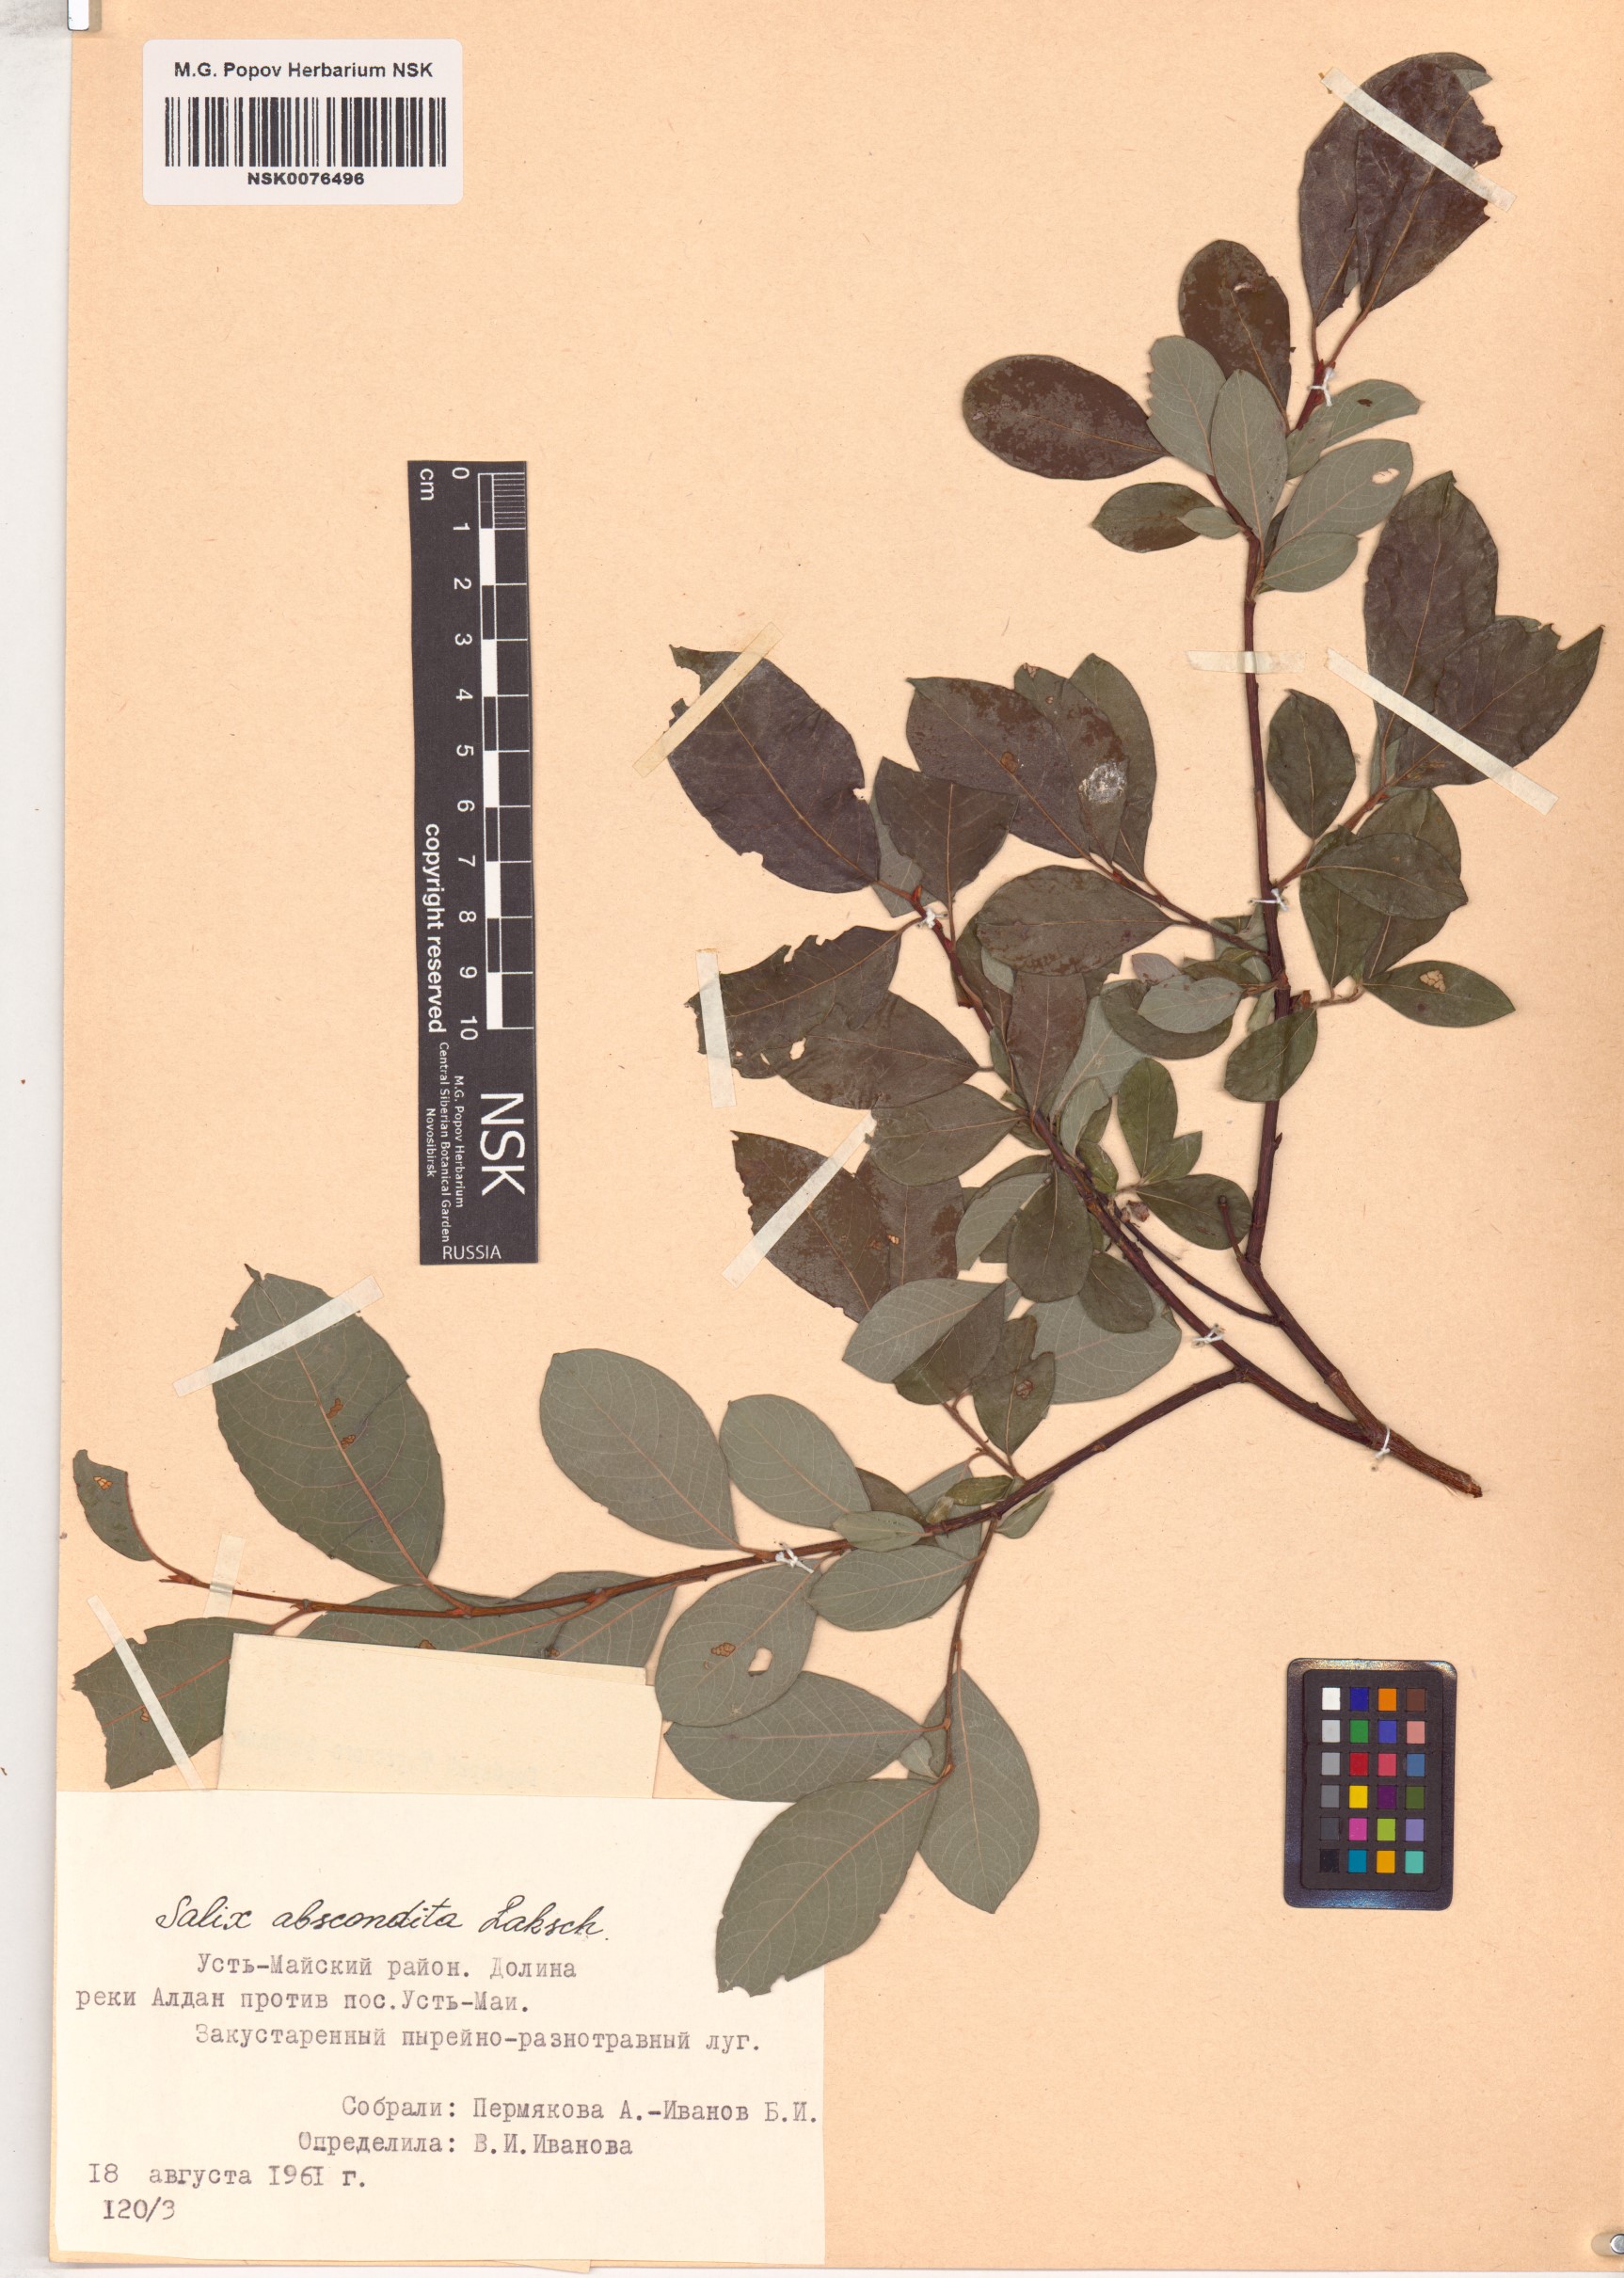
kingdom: Plantae
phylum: Tracheophyta
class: Magnoliopsida
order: Malpighiales
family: Salicaceae
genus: Salix
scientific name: Salix abscondita
